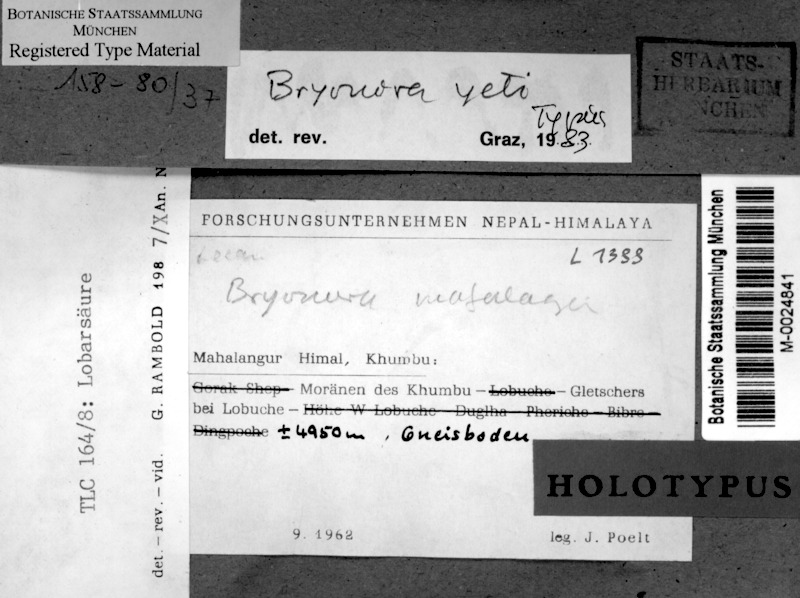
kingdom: Fungi
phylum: Ascomycota
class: Lecanoromycetes
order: Lecanorales
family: Lecanoraceae
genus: Bryonora
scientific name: Bryonora yeti
